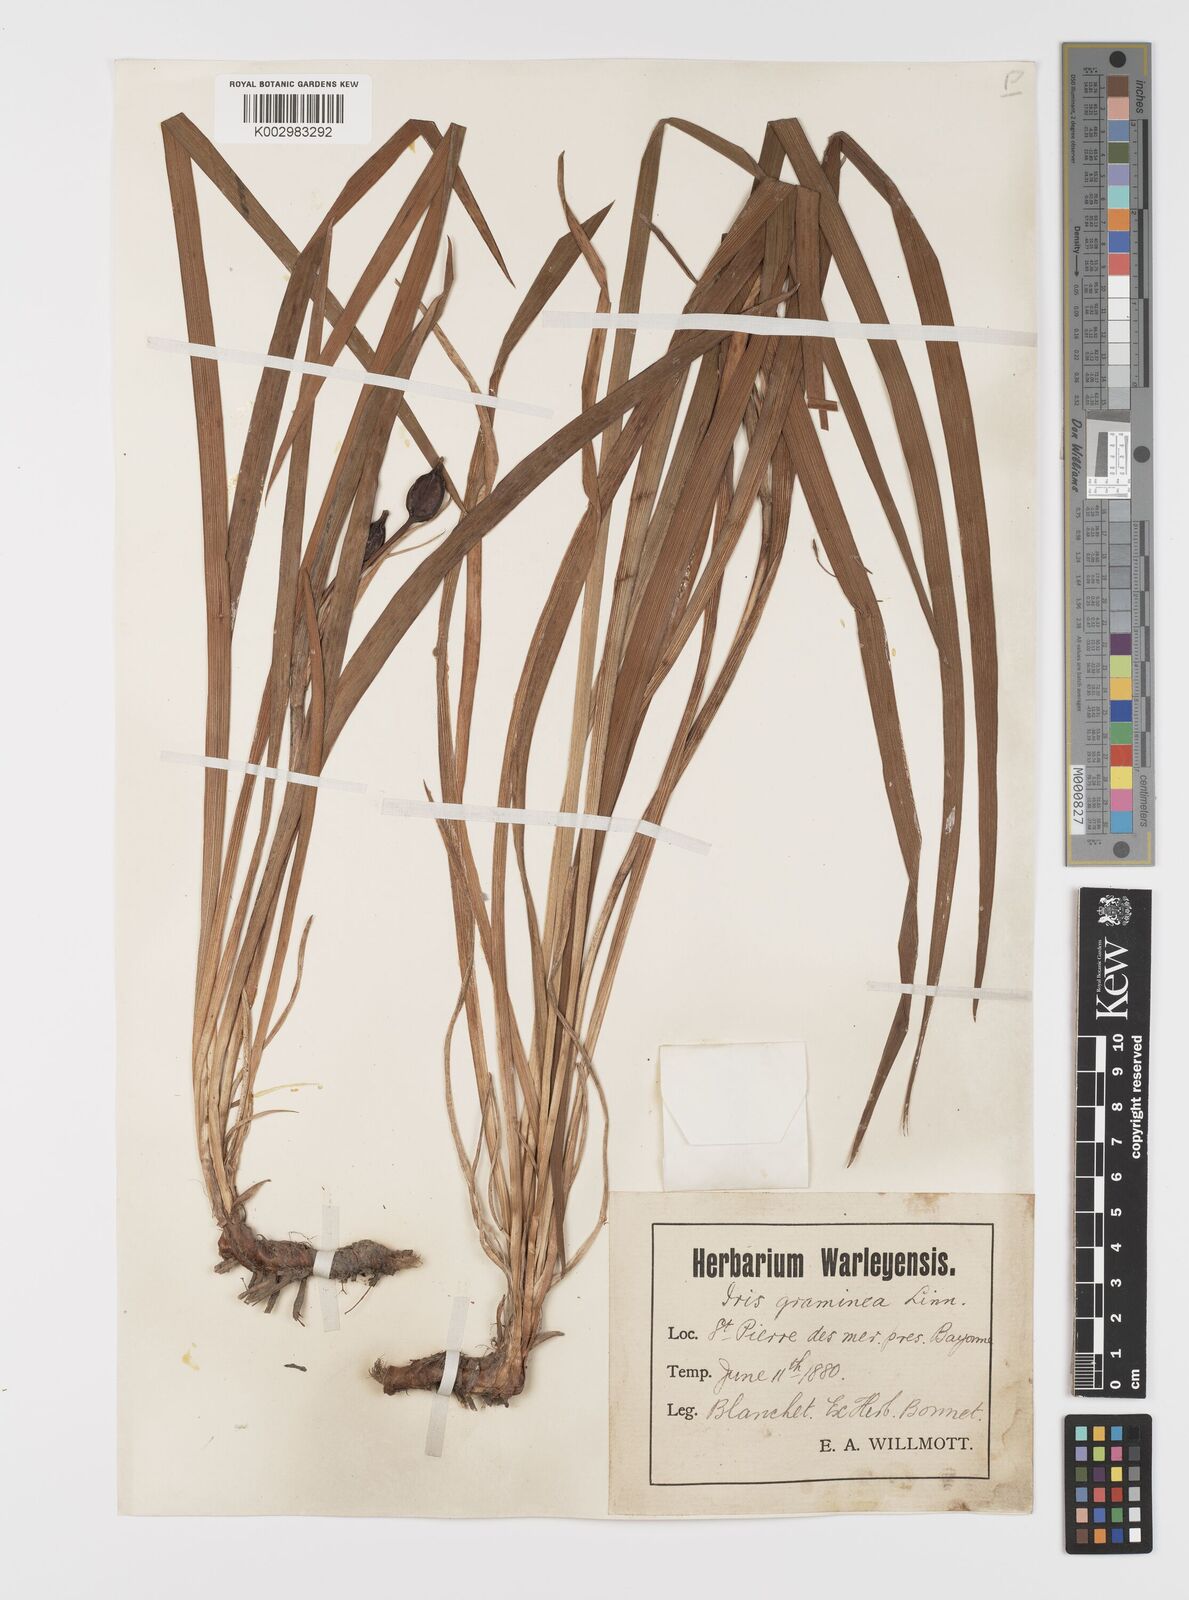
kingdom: Plantae
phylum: Tracheophyta
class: Liliopsida
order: Asparagales
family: Iridaceae
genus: Iris
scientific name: Iris graminea
